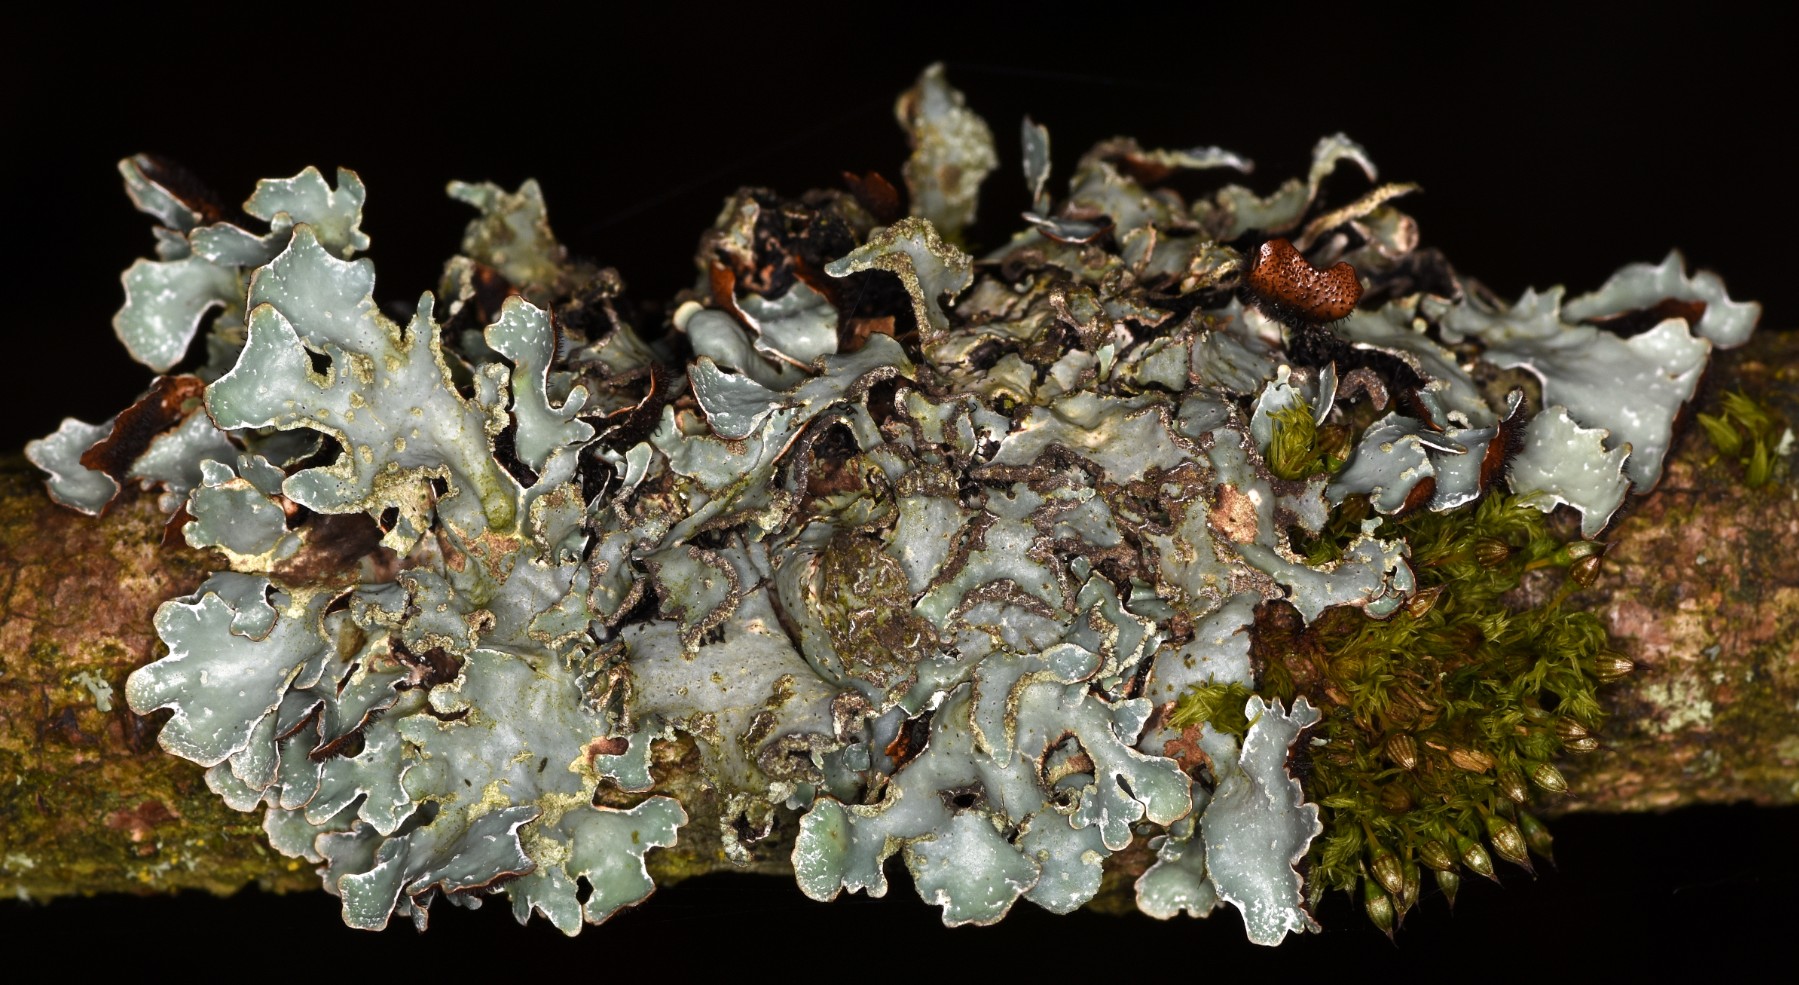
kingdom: Fungi
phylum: Ascomycota
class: Lecanoromycetes
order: Lecanorales
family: Parmeliaceae
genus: Parmelia
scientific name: Parmelia sulcata
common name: rynket skållav
